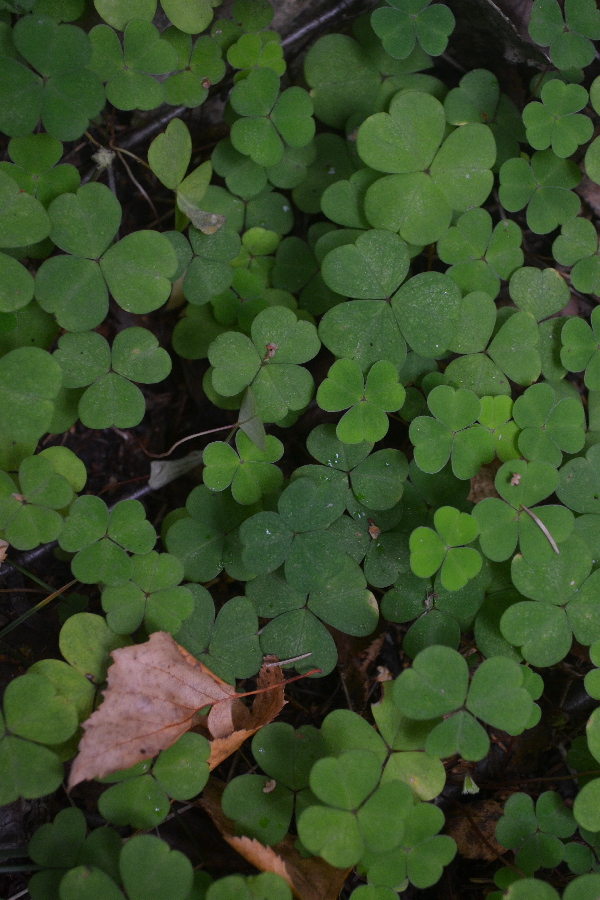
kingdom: Plantae
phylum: Tracheophyta
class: Magnoliopsida
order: Oxalidales
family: Oxalidaceae
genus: Oxalis
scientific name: Oxalis acetosella
